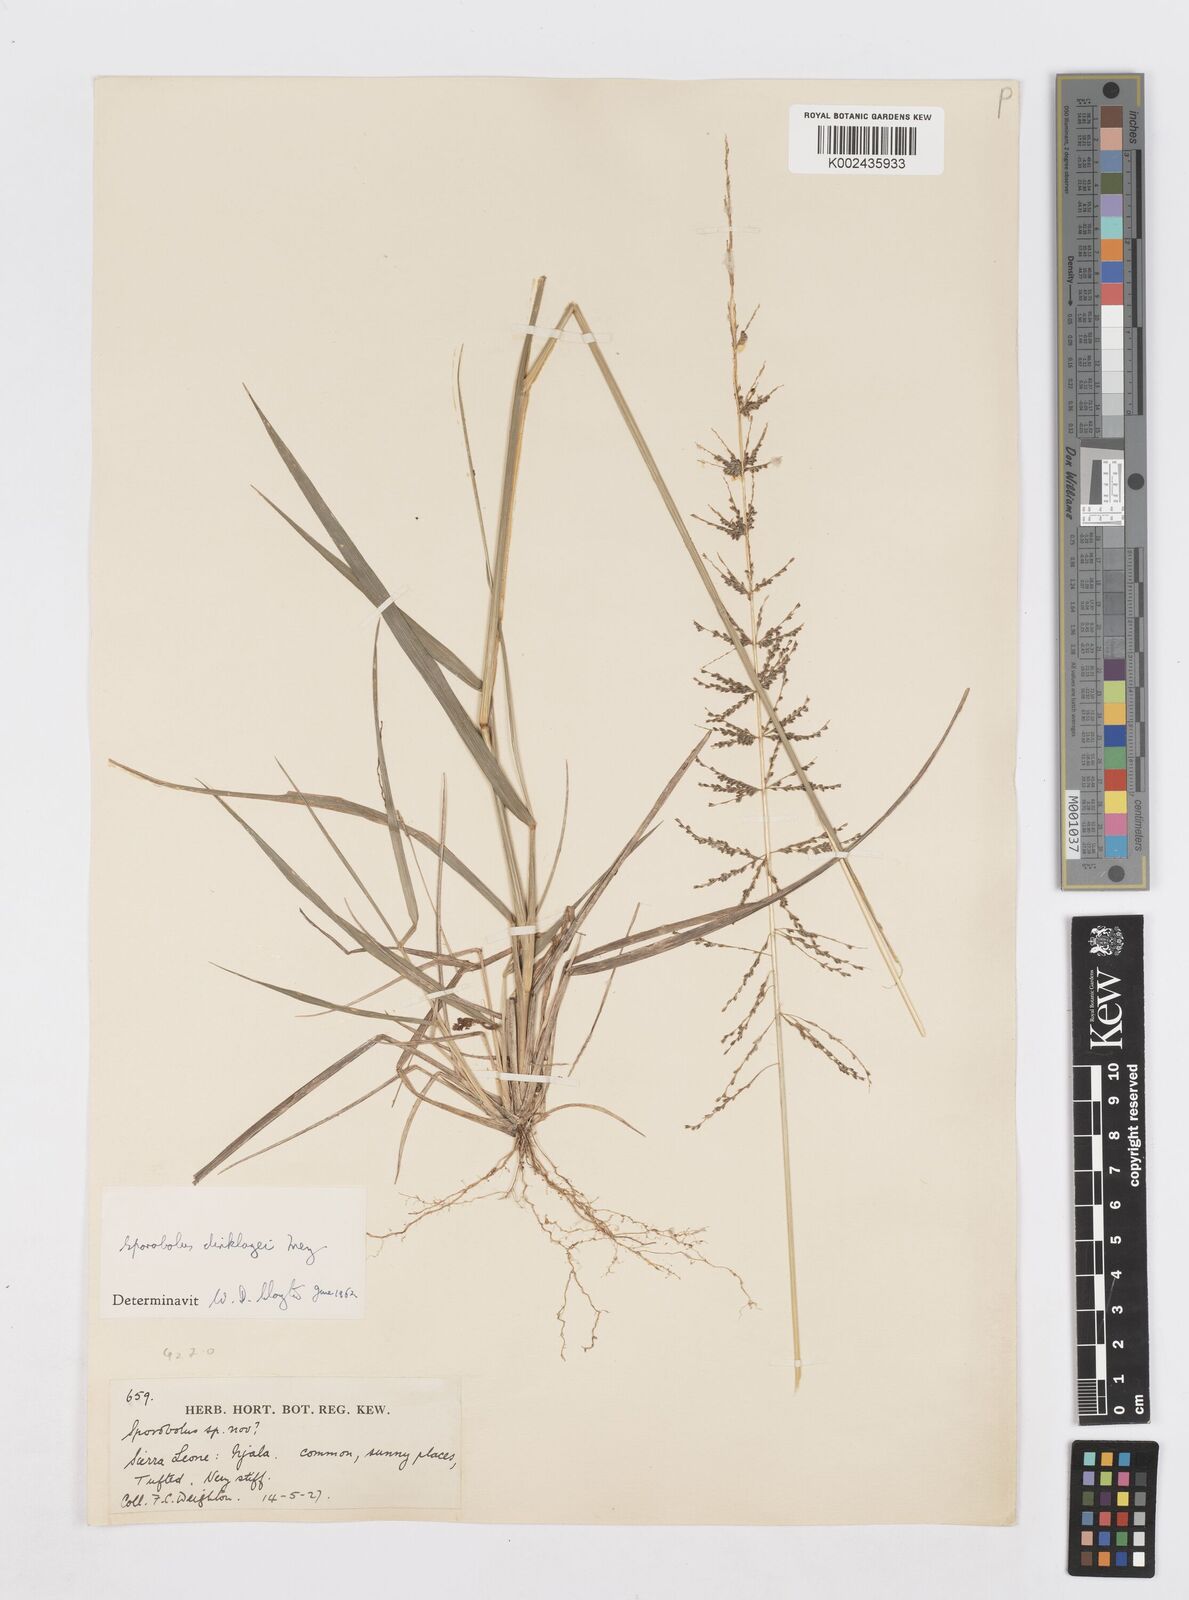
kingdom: Plantae
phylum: Tracheophyta
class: Liliopsida
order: Poales
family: Poaceae
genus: Sporobolus
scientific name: Sporobolus dinklagei
